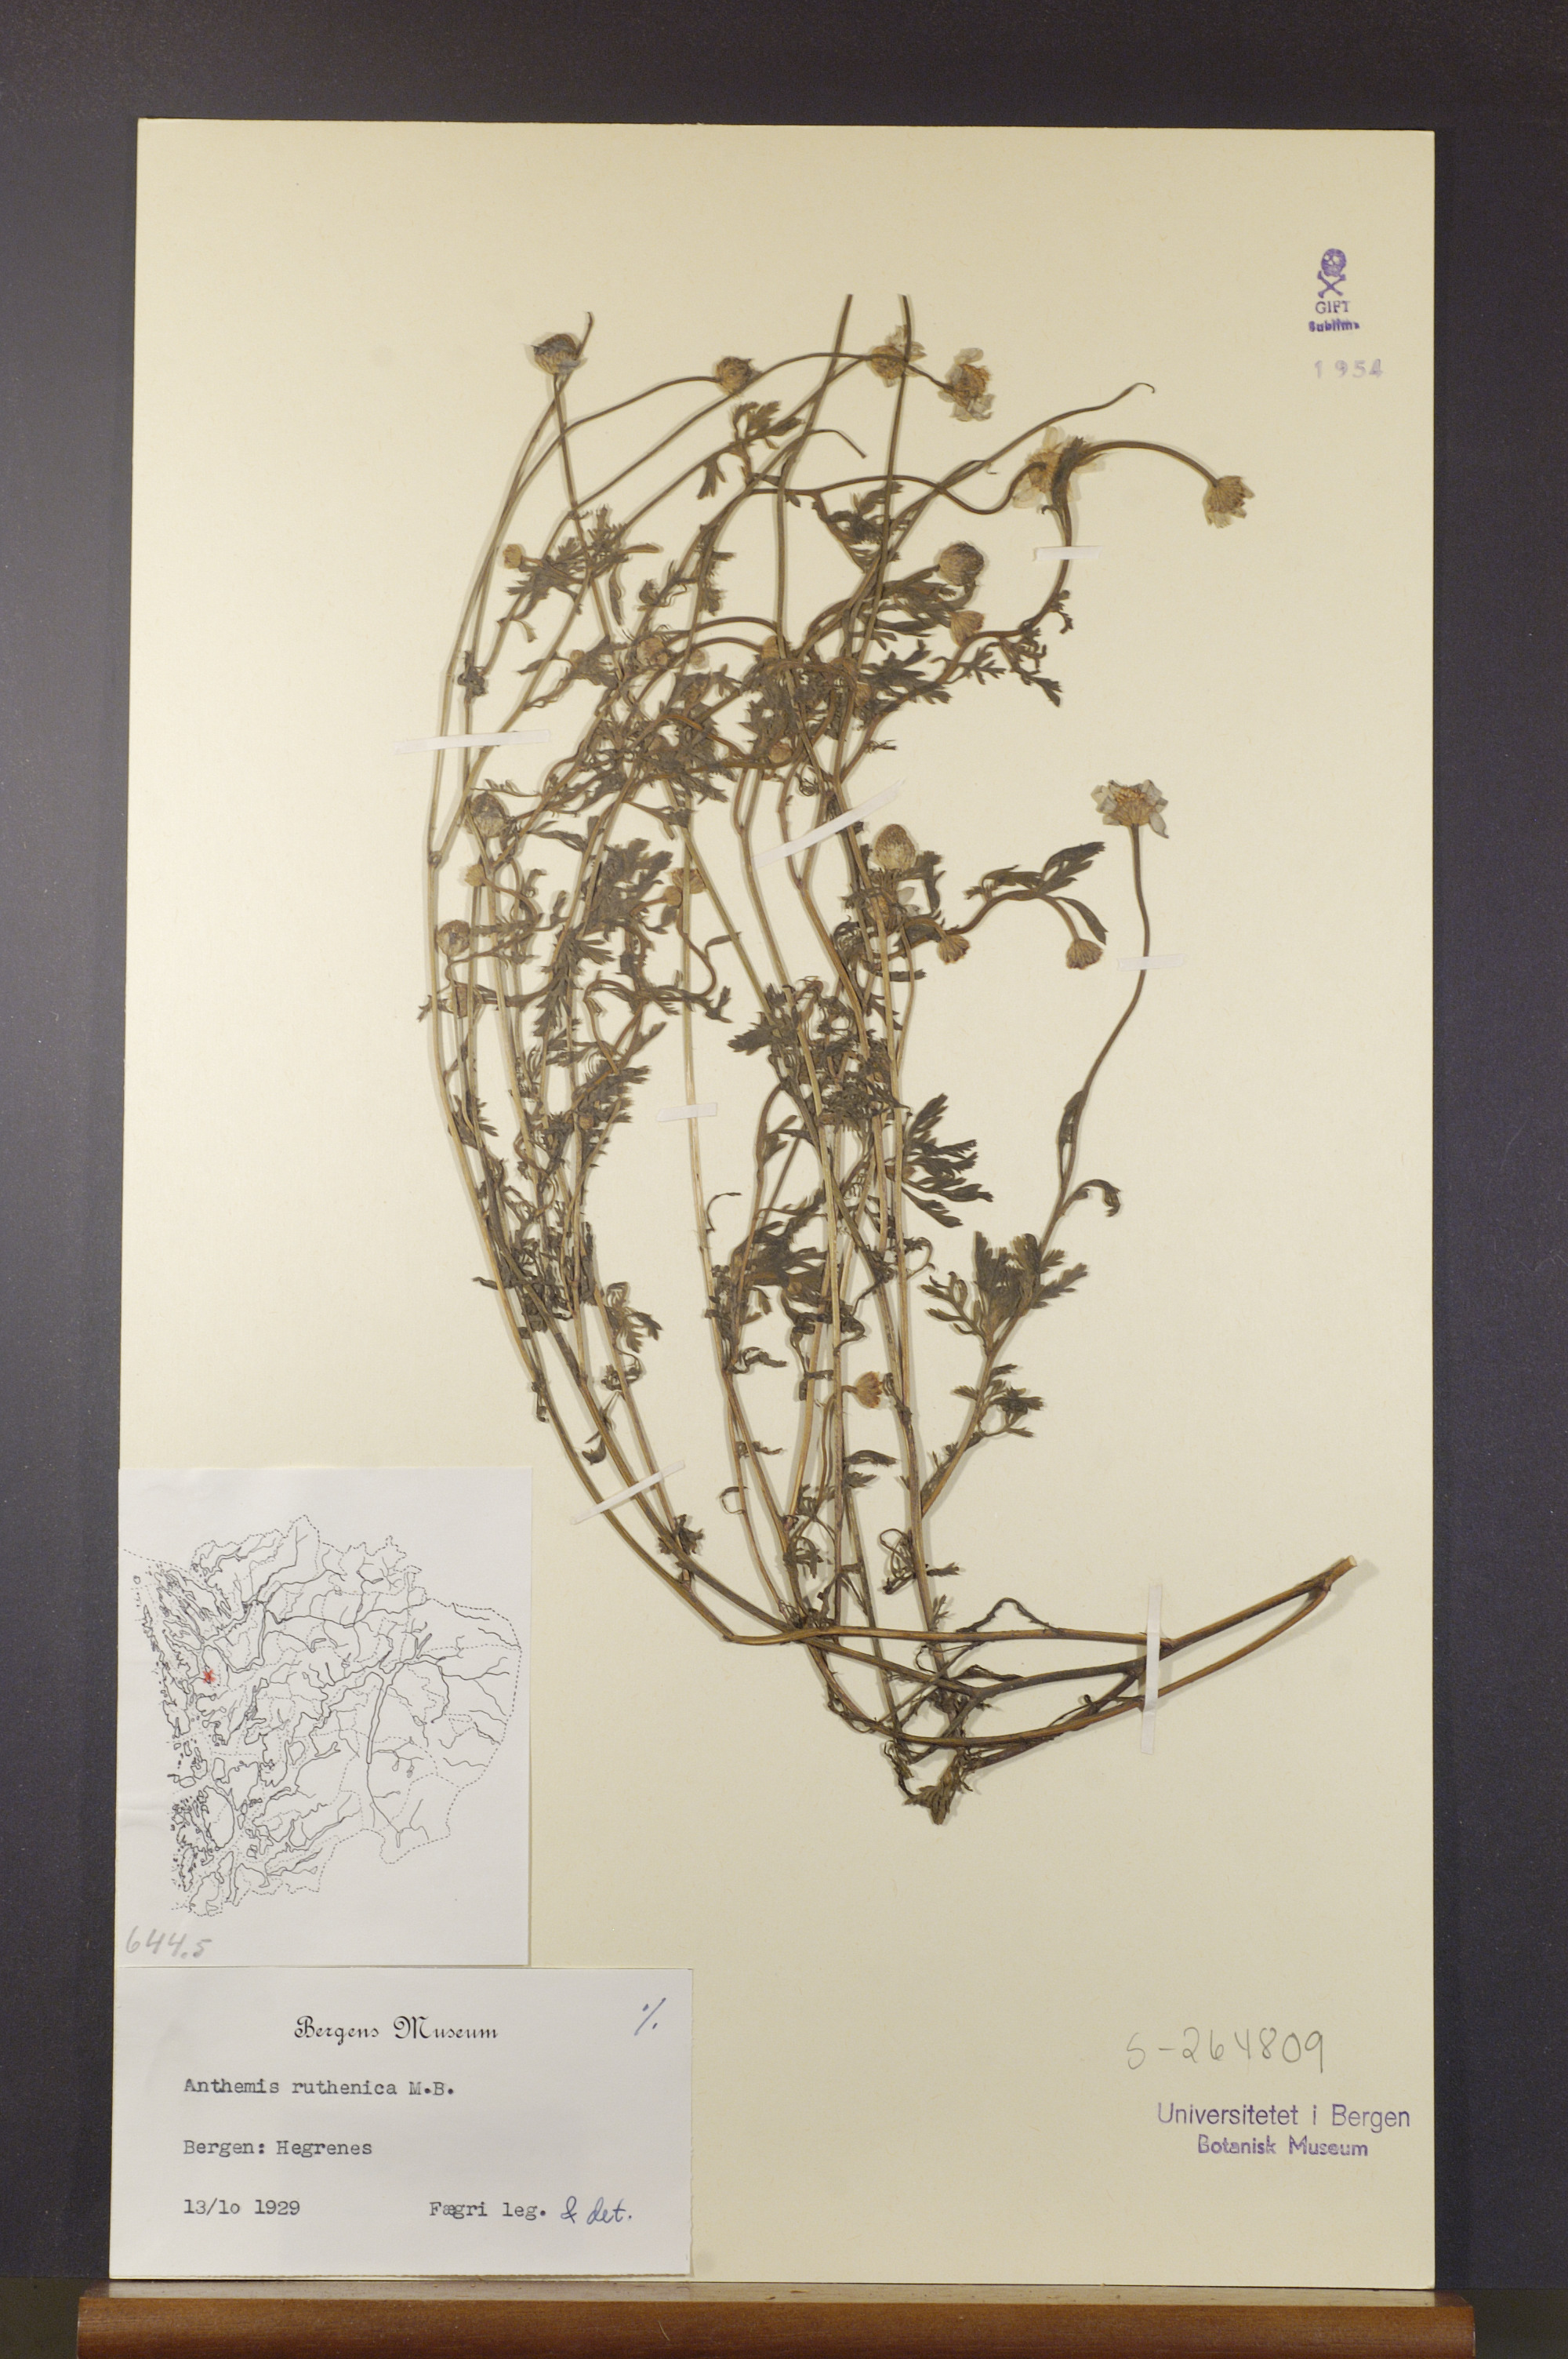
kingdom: Plantae
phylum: Tracheophyta
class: Magnoliopsida
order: Asterales
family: Asteraceae
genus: Anthemis
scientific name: Anthemis ruthenica
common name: Eastern chamomile
